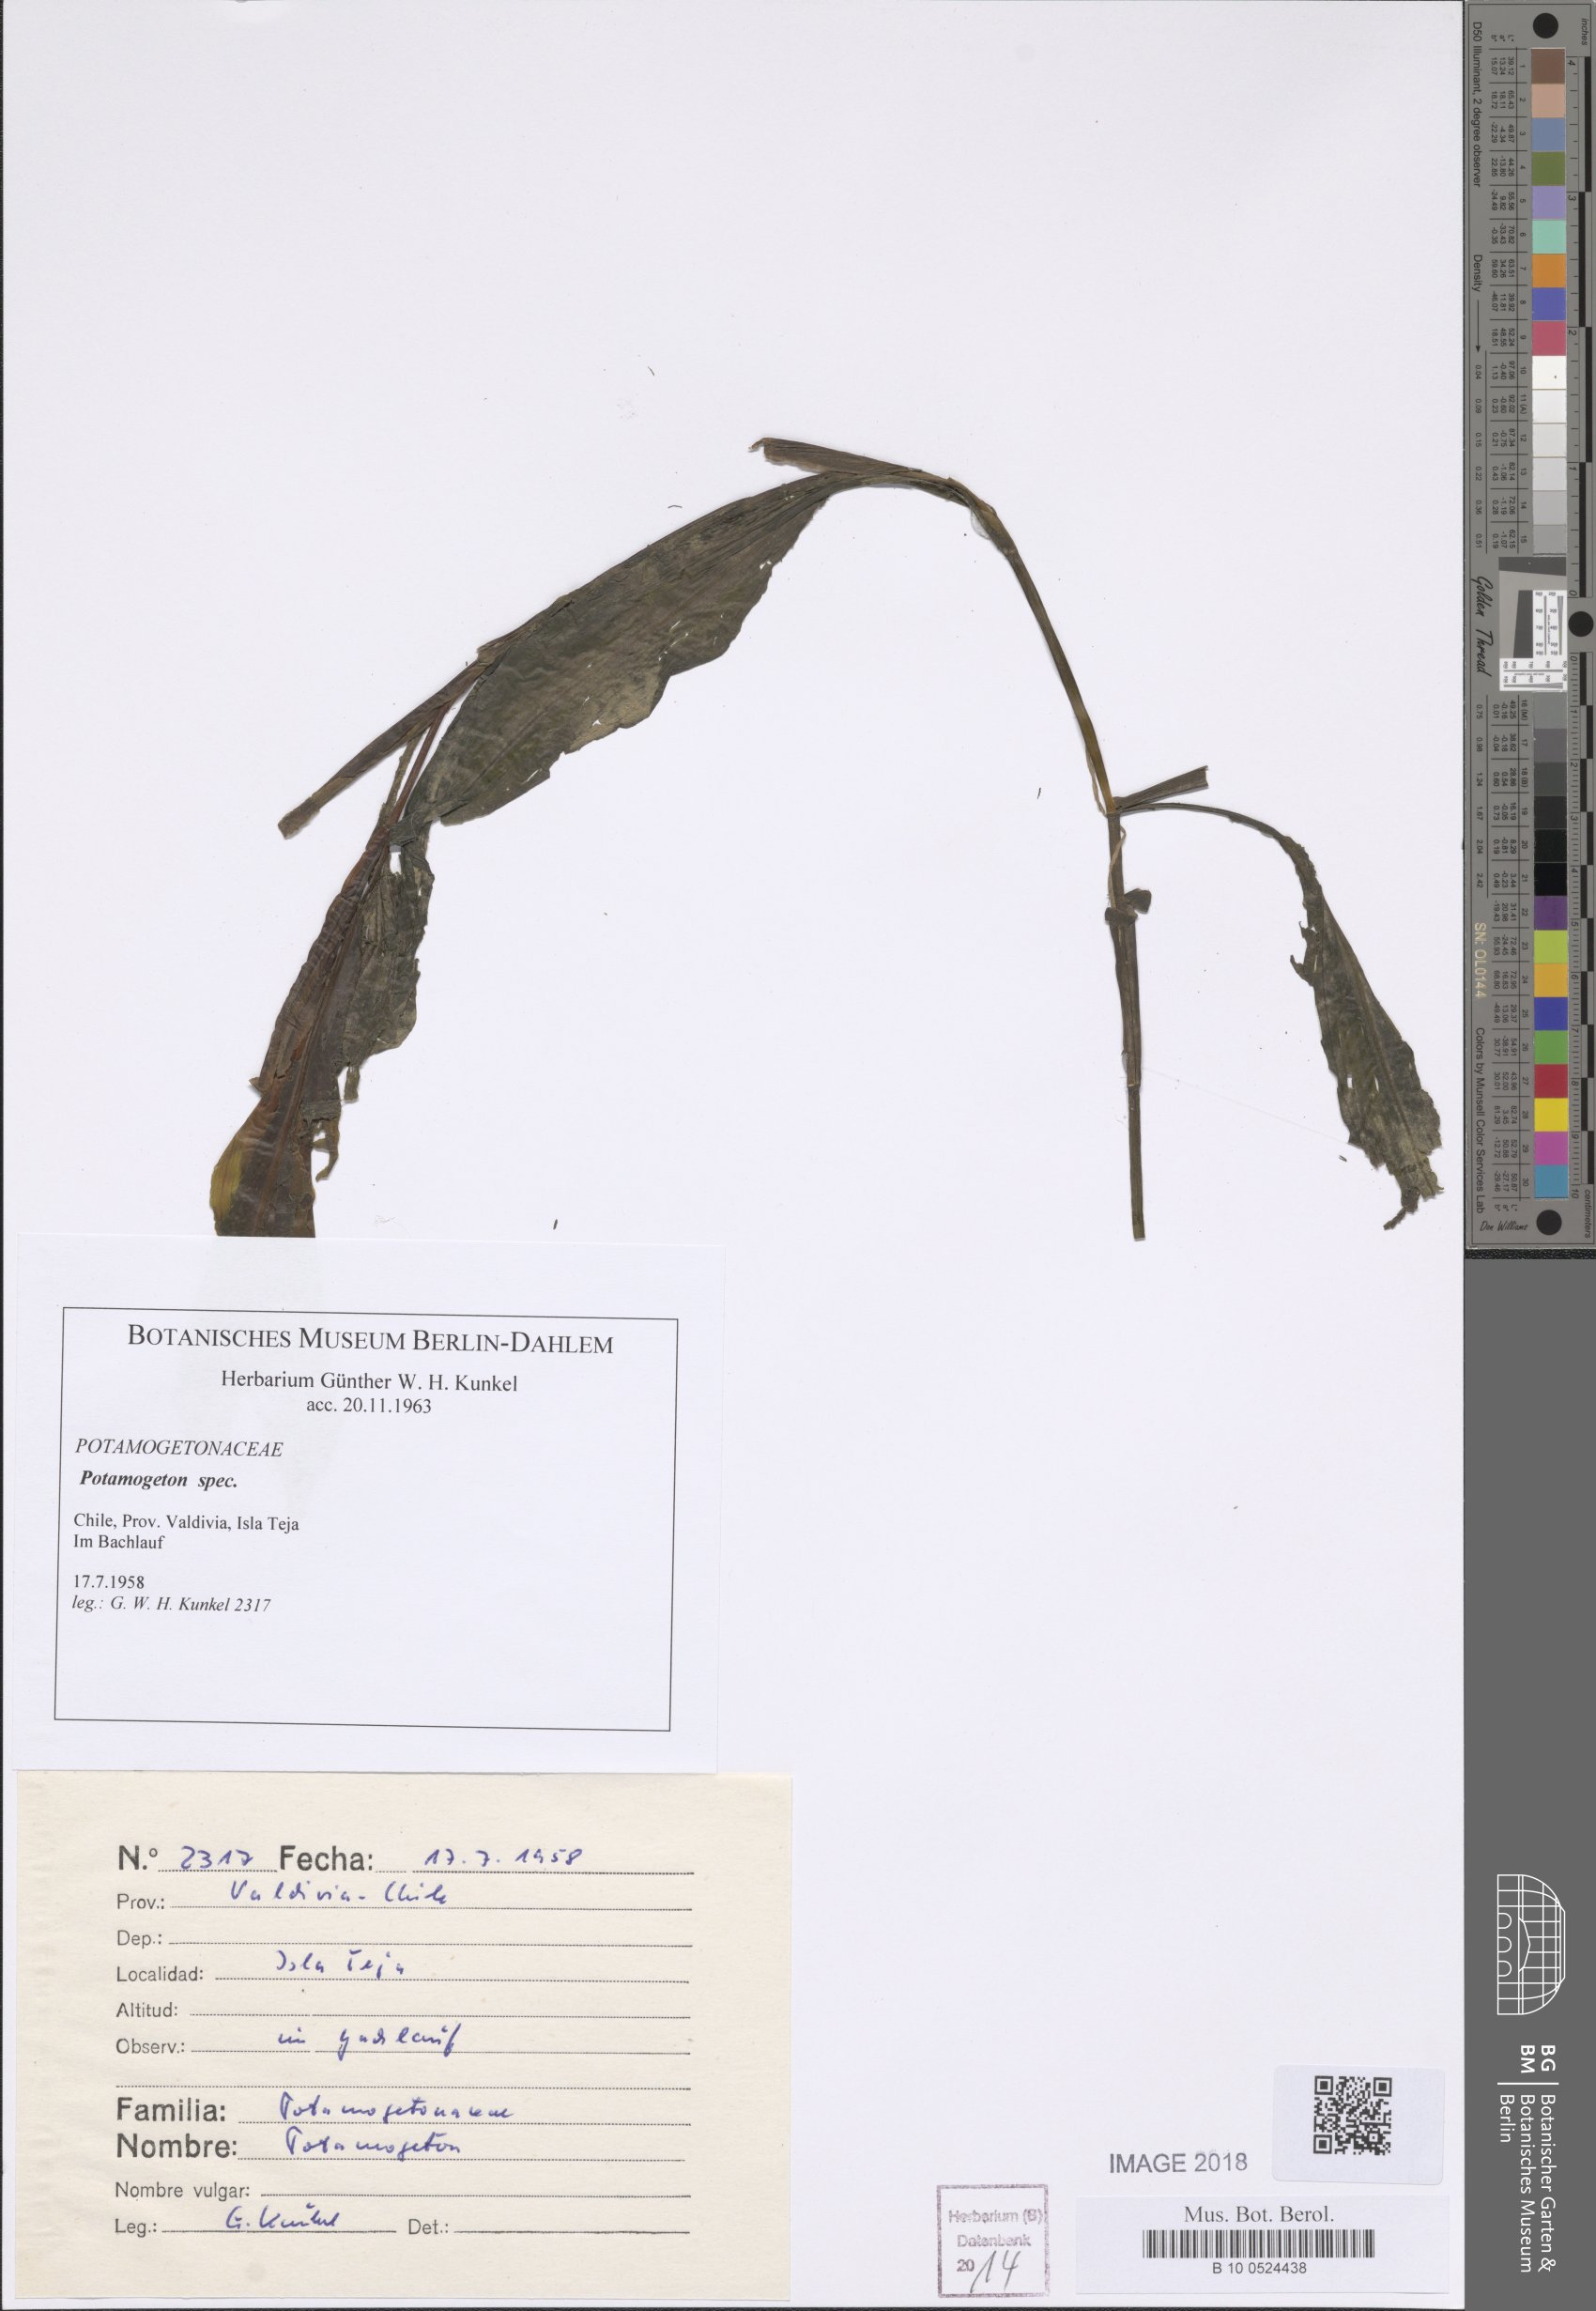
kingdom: Plantae
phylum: Tracheophyta
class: Liliopsida
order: Alismatales
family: Potamogetonaceae
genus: Potamogeton
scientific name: Potamogeton linguatus
